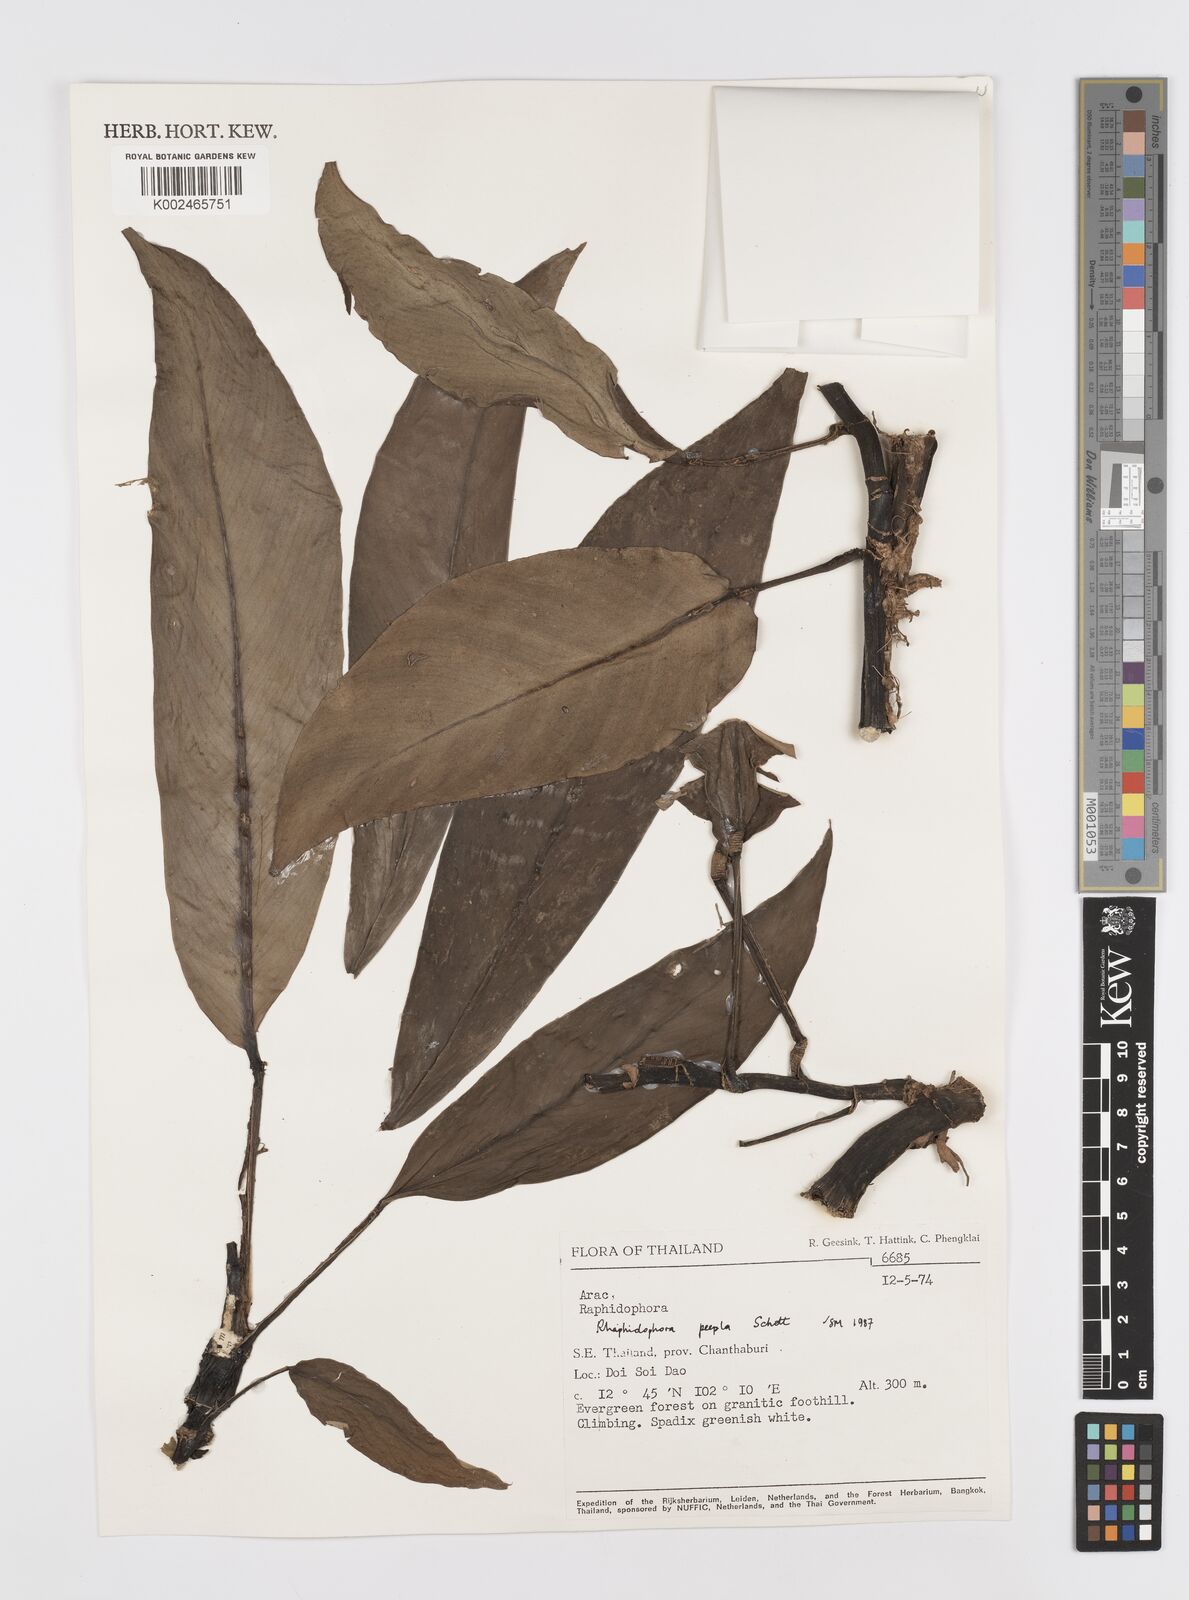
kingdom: Plantae
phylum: Tracheophyta
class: Liliopsida
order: Alismatales
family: Araceae
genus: Rhaphidophora
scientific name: Rhaphidophora
